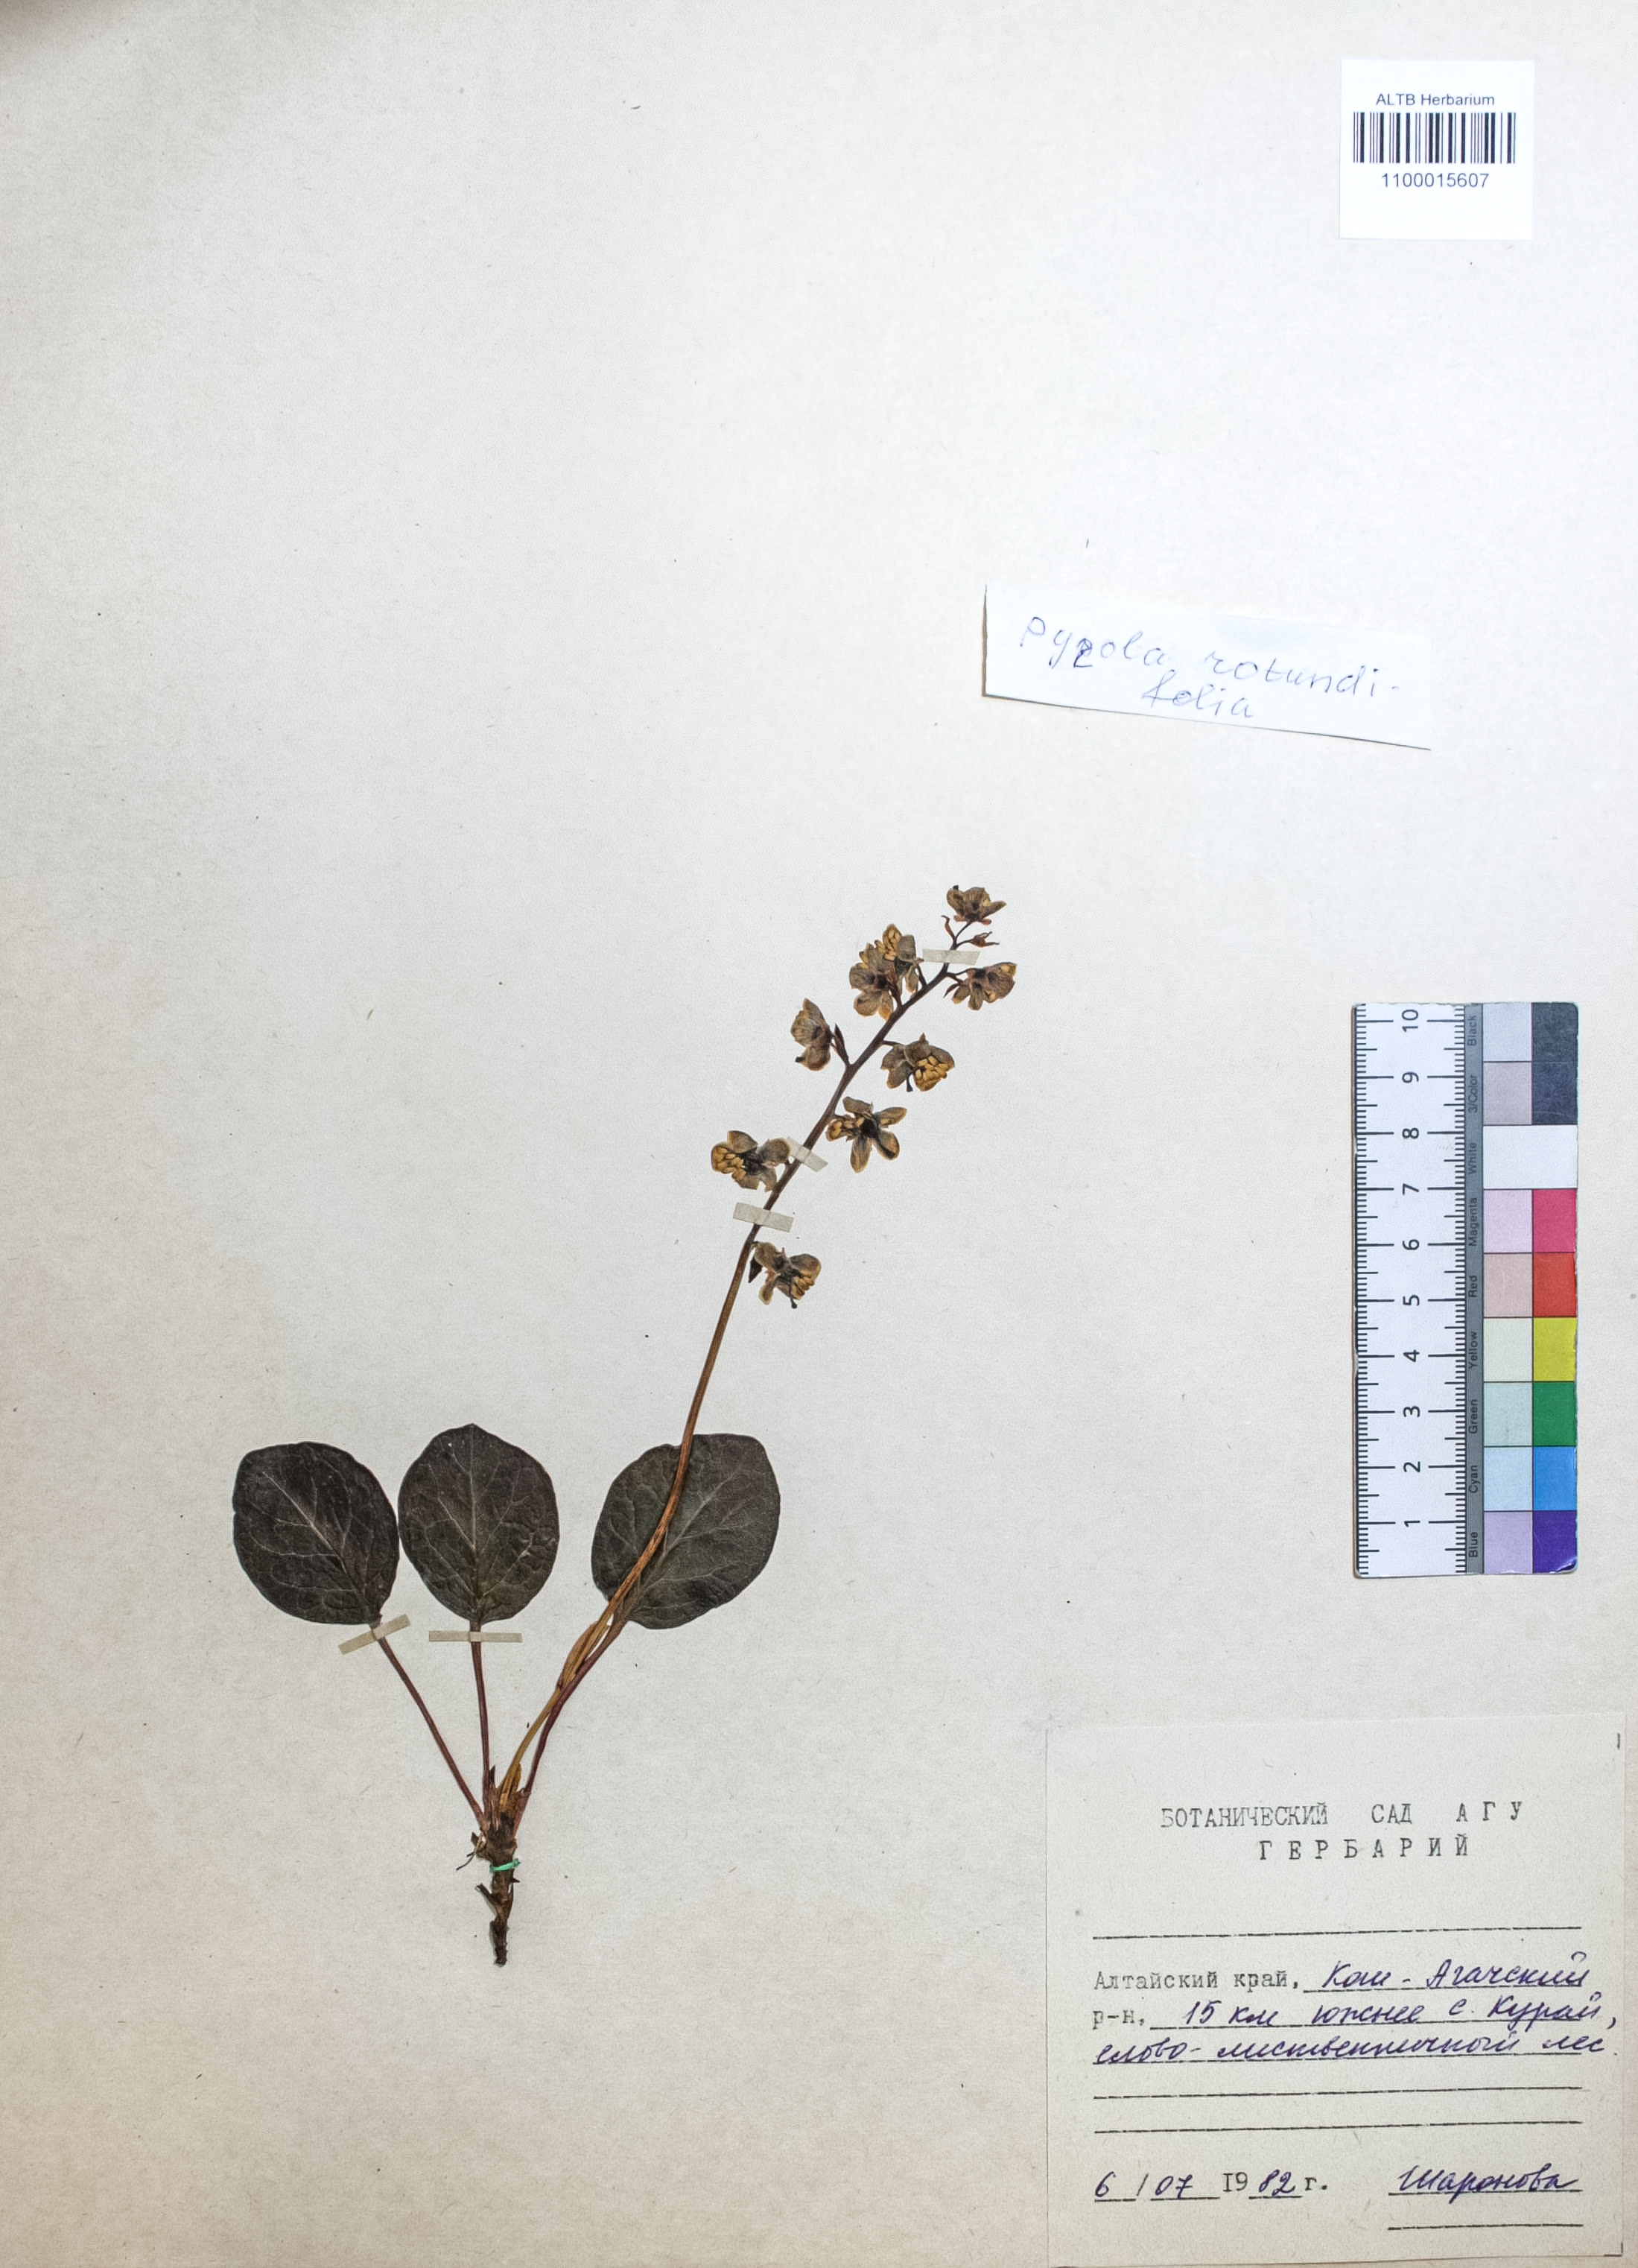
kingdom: Plantae
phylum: Tracheophyta
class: Magnoliopsida
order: Ericales
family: Ericaceae
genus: Pyrola
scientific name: Pyrola rotundifolia
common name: Round-leaved wintergreen
